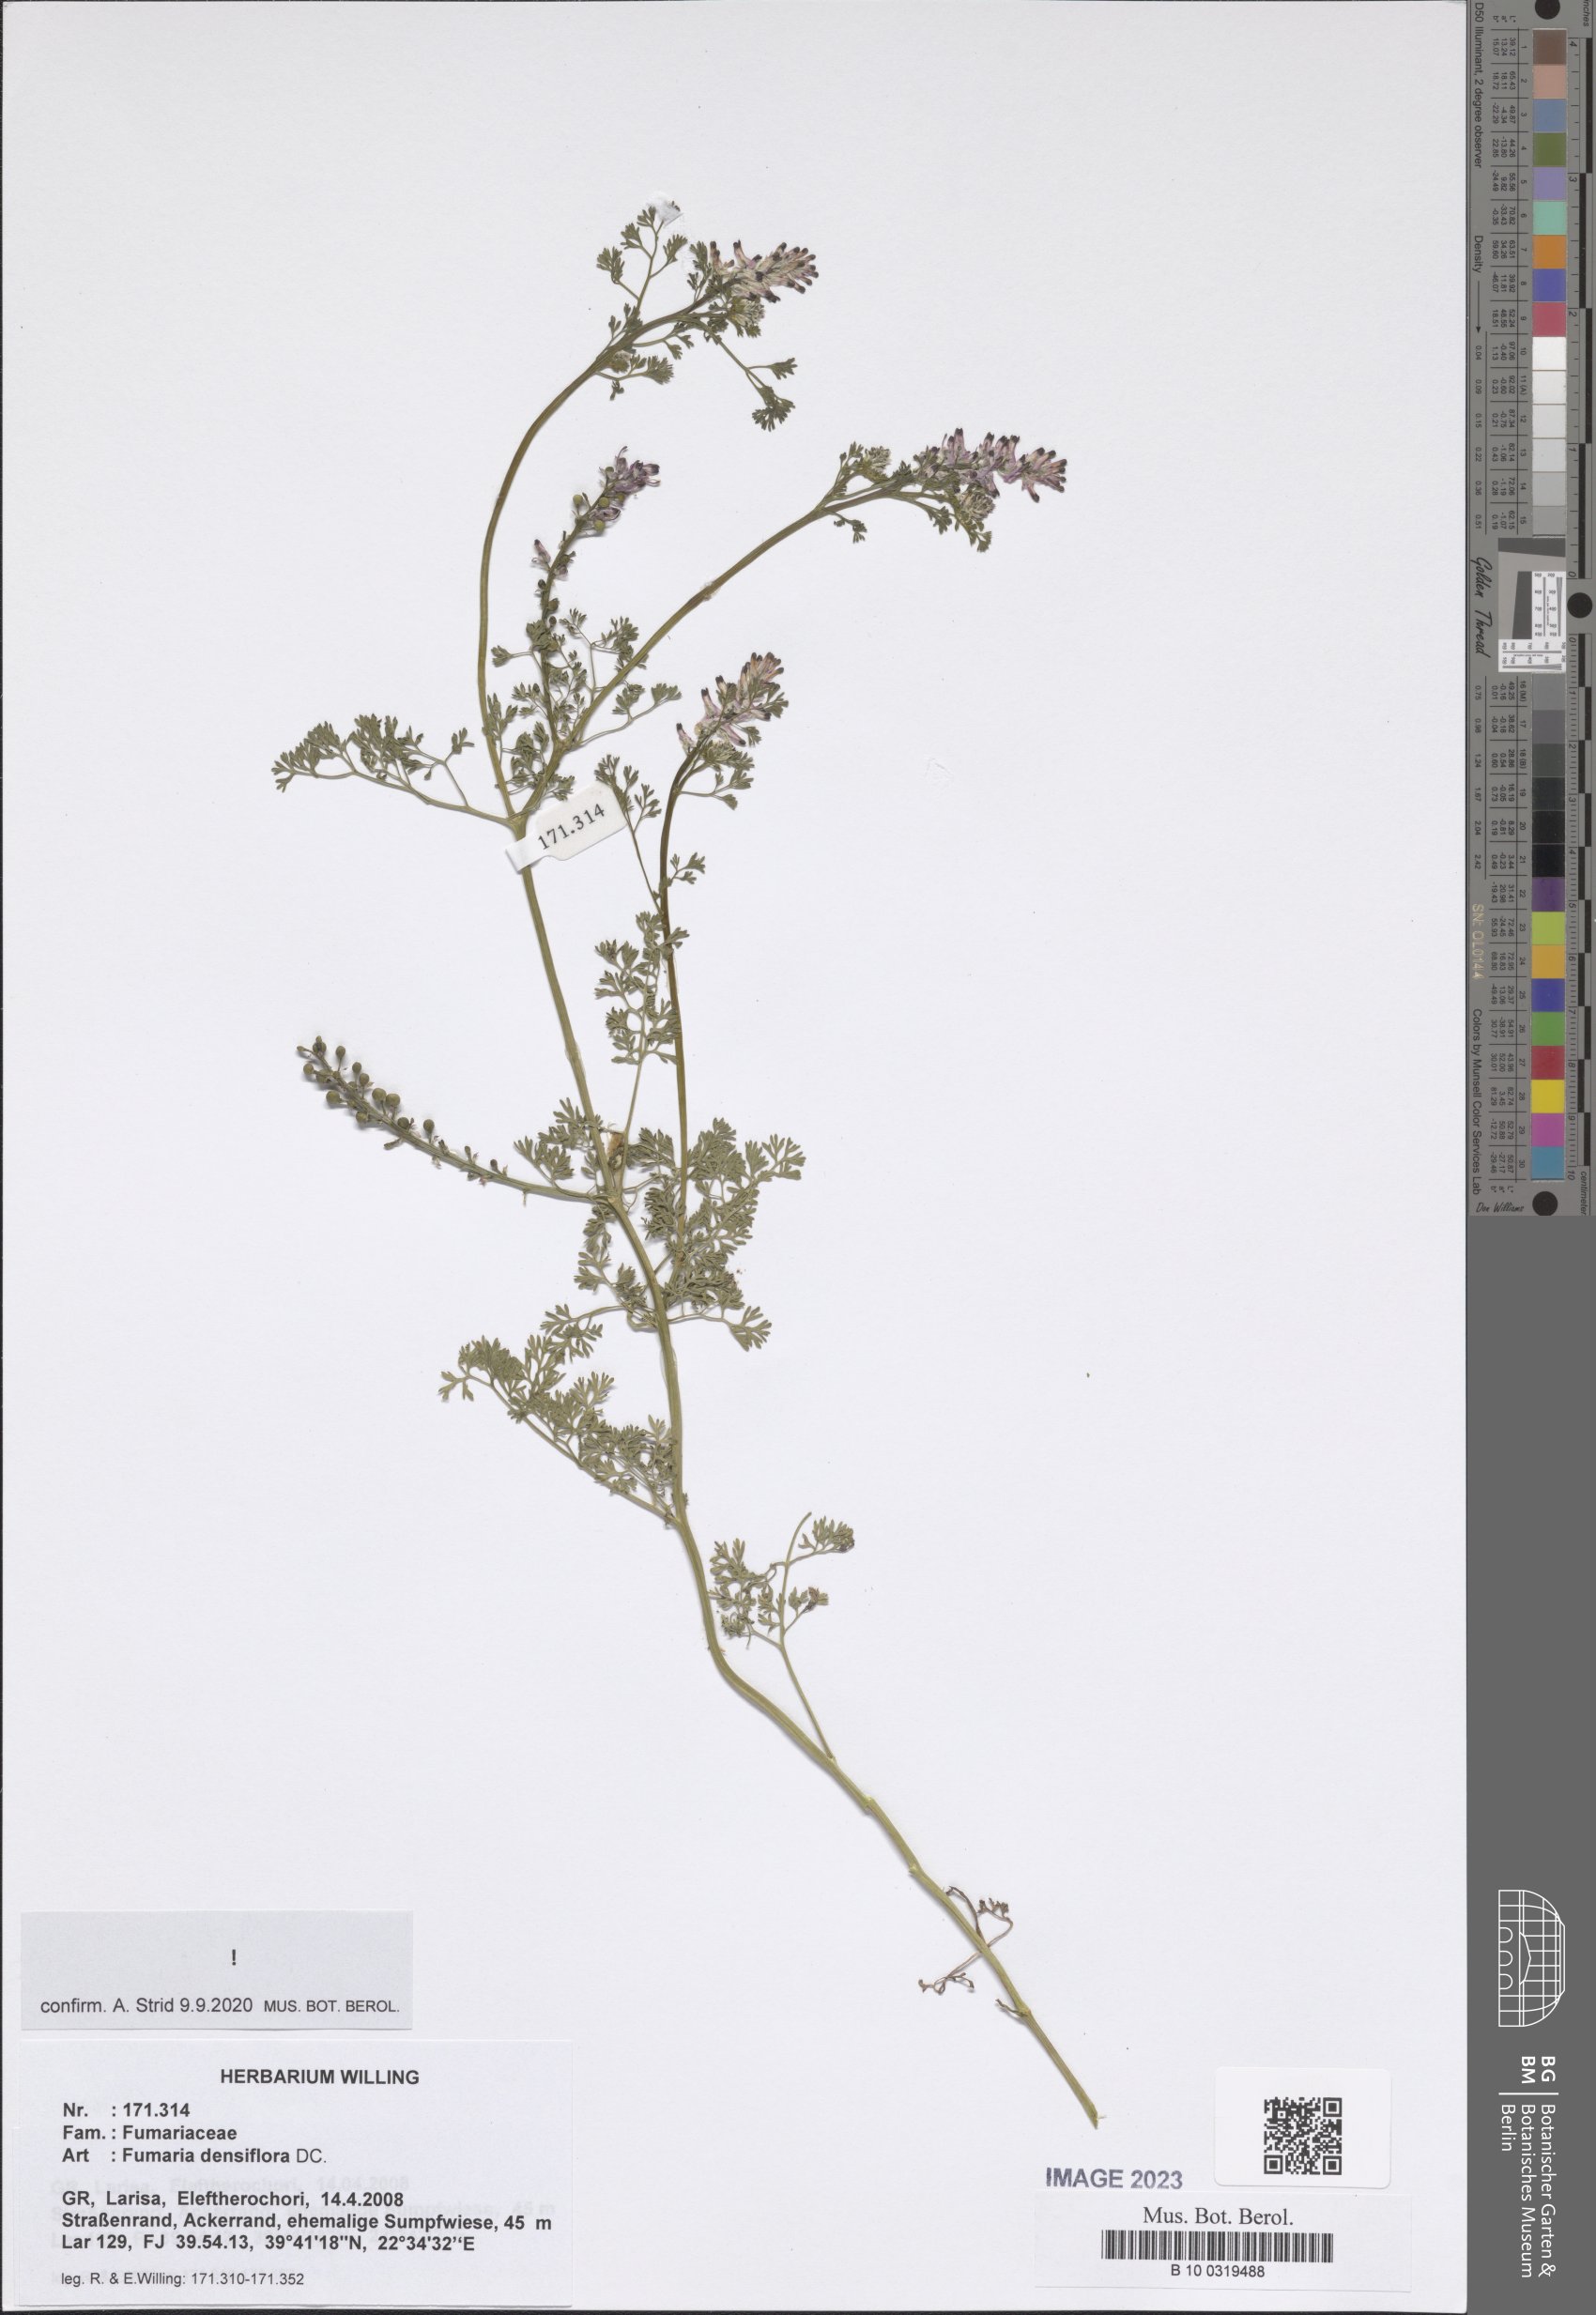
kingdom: Plantae
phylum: Tracheophyta
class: Magnoliopsida
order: Ranunculales
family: Papaveraceae
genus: Fumaria
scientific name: Fumaria densiflora
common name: Dense-flowered fumitory
